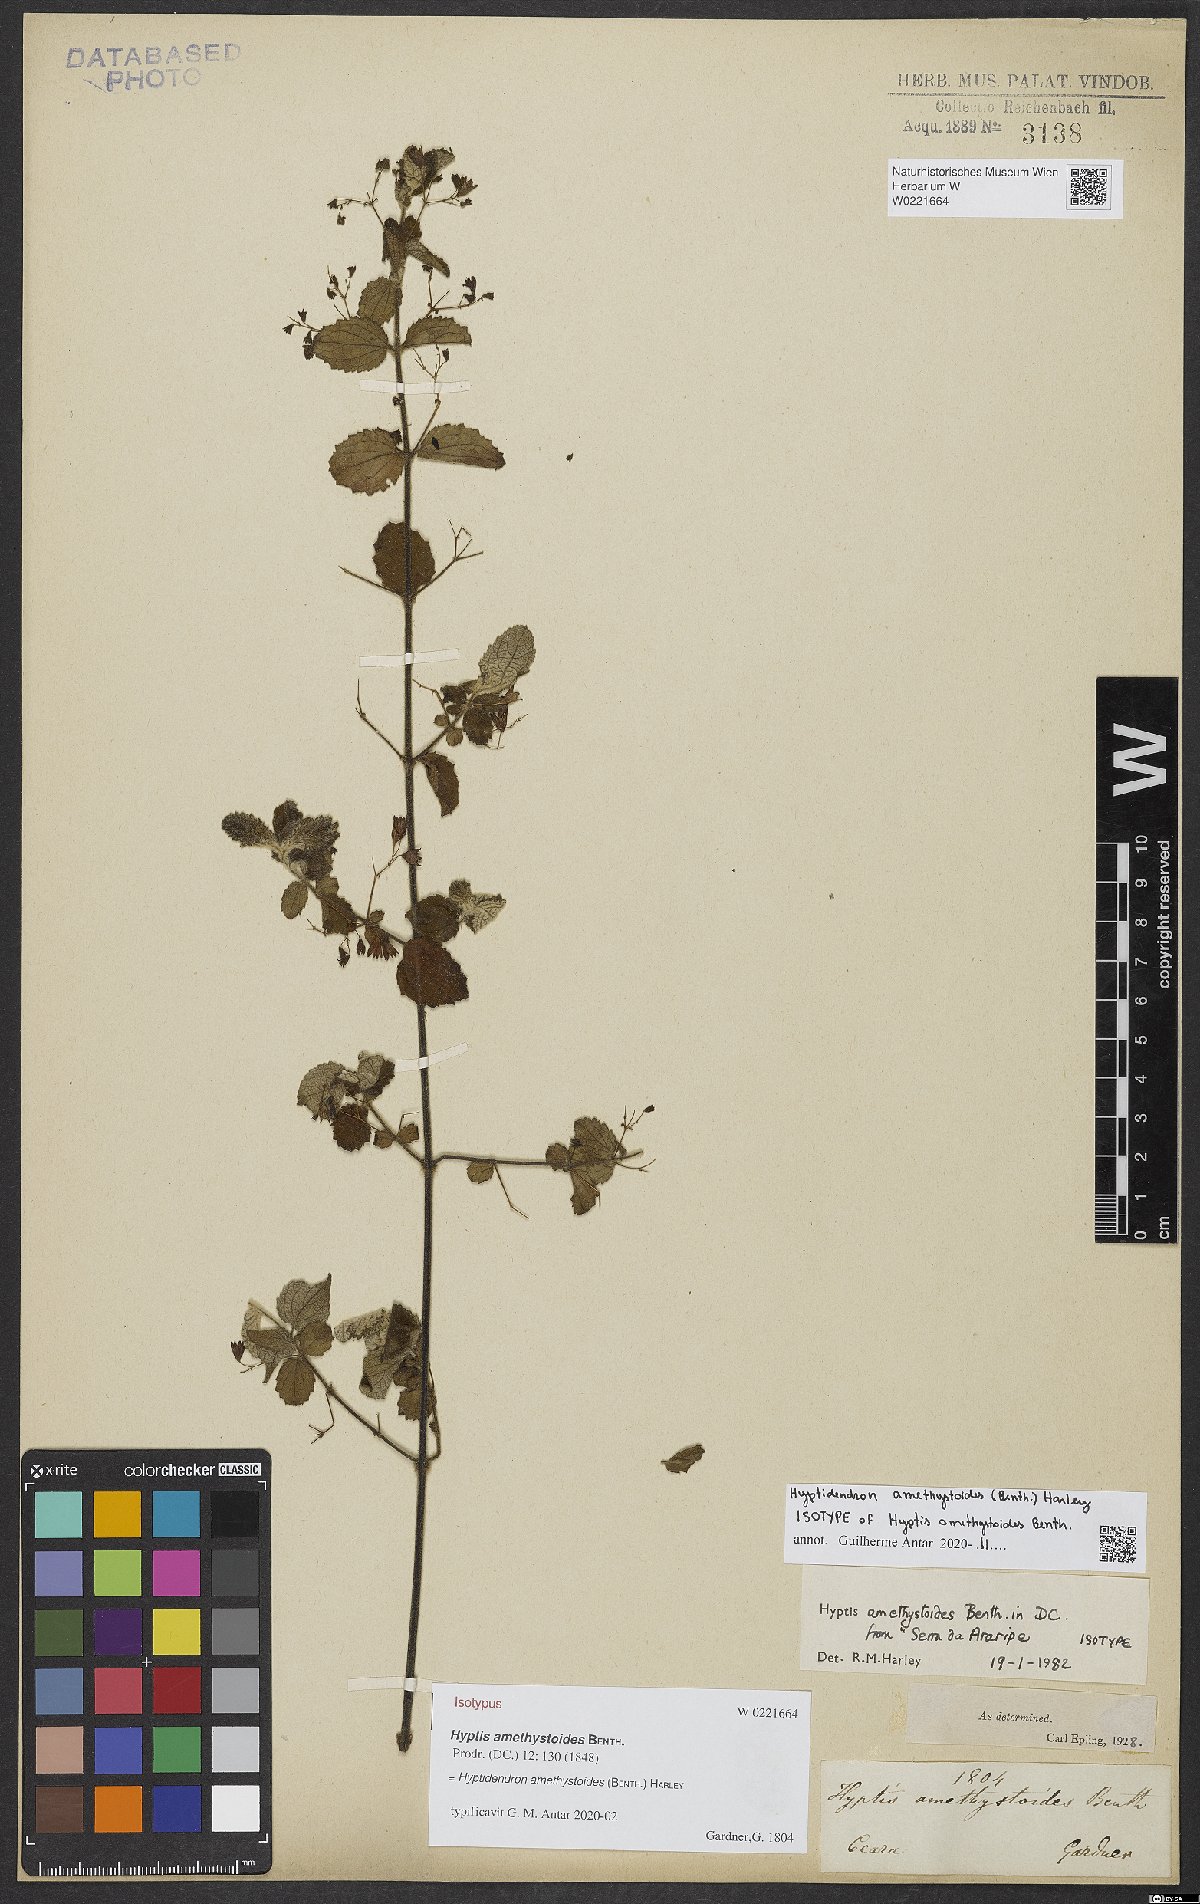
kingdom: Plantae
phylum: Tracheophyta
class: Magnoliopsida
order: Lamiales
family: Lamiaceae
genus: Hyptidendron
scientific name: Hyptidendron amethystoides
